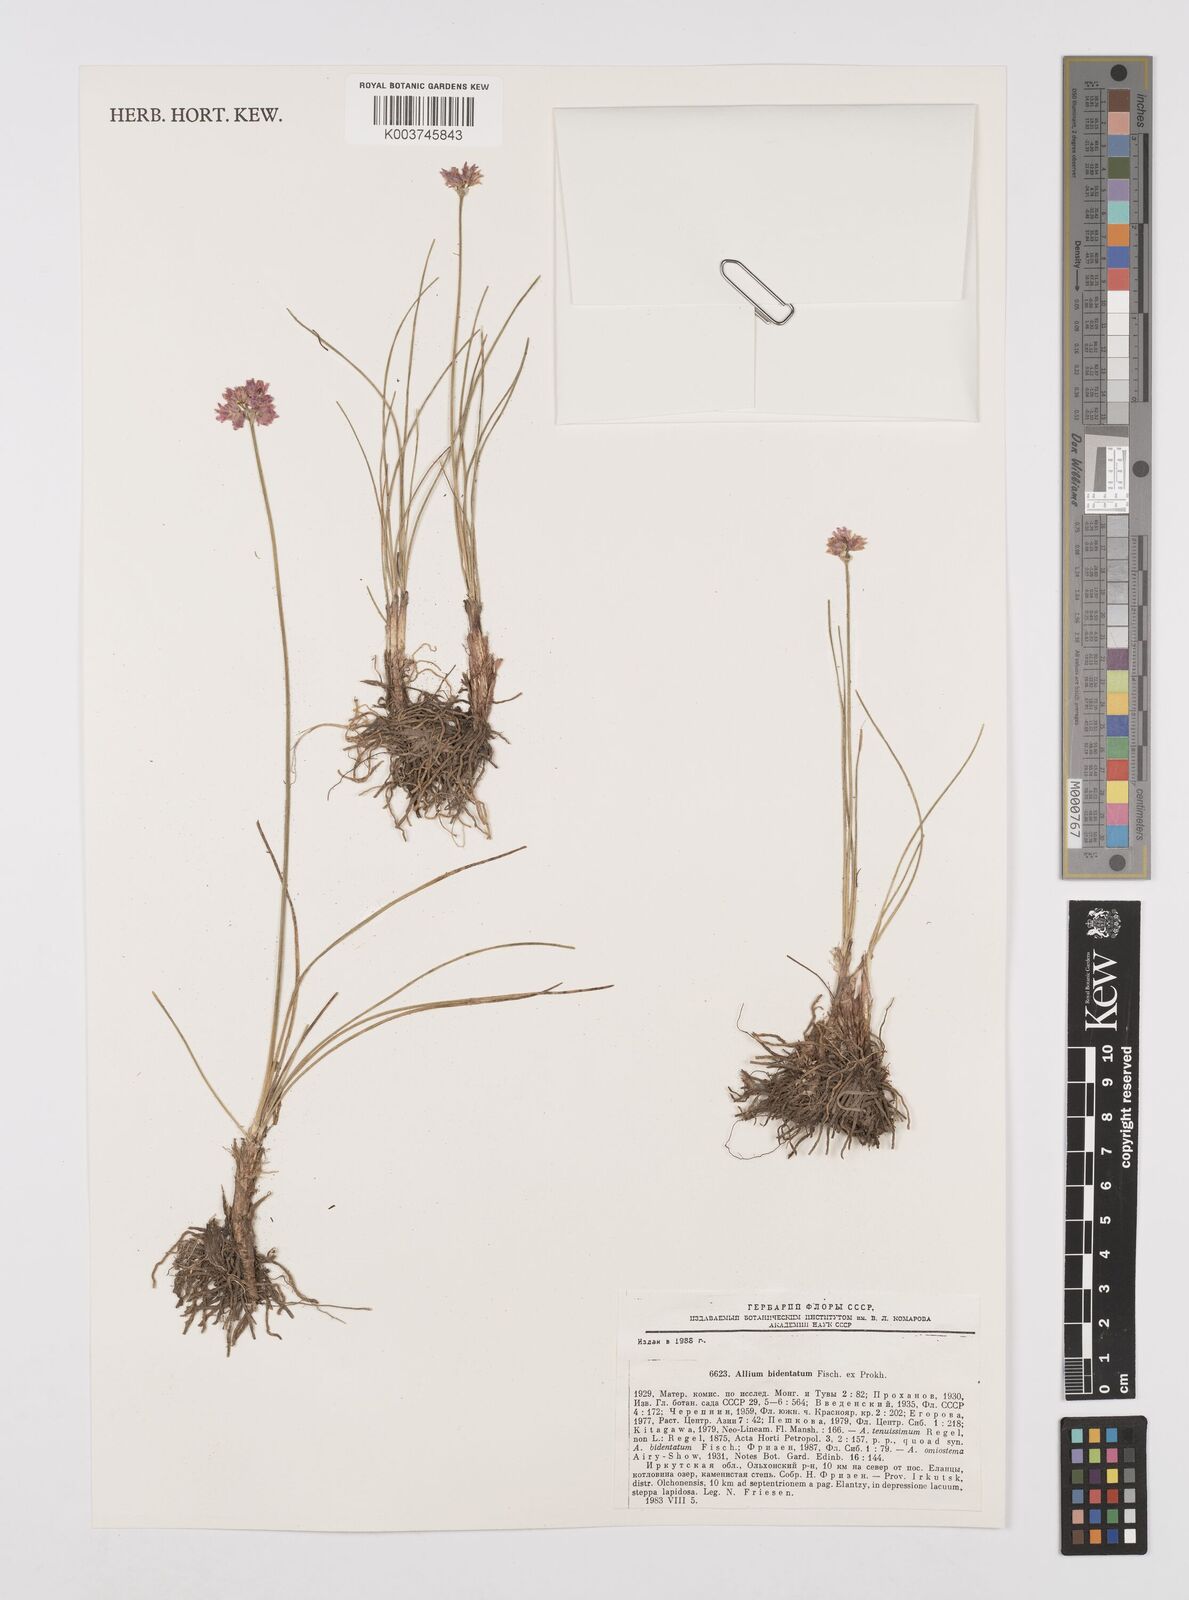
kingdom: Plantae
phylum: Tracheophyta
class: Liliopsida
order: Asparagales
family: Amaryllidaceae
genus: Allium
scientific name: Allium bidentatum
